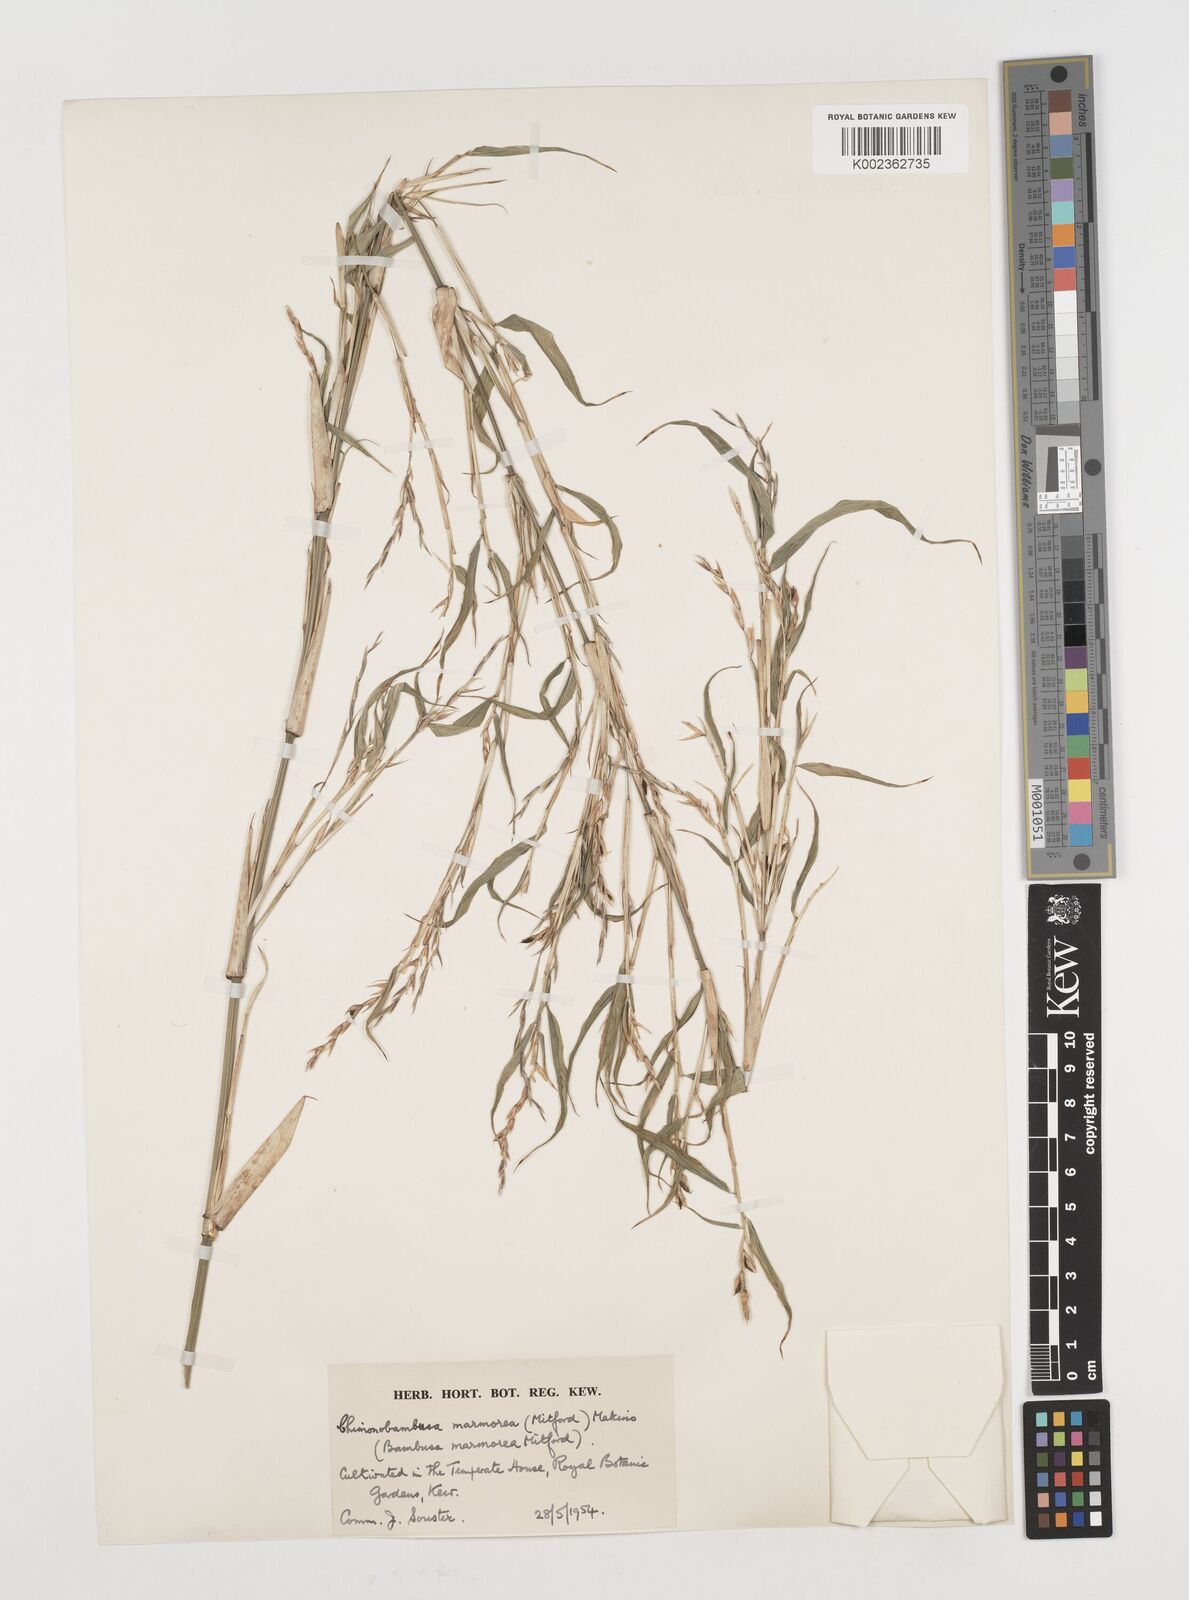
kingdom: Plantae
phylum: Tracheophyta
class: Liliopsida
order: Poales
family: Poaceae
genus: Chimonobambusa
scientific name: Chimonobambusa marmorea
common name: Marbled bamboo
